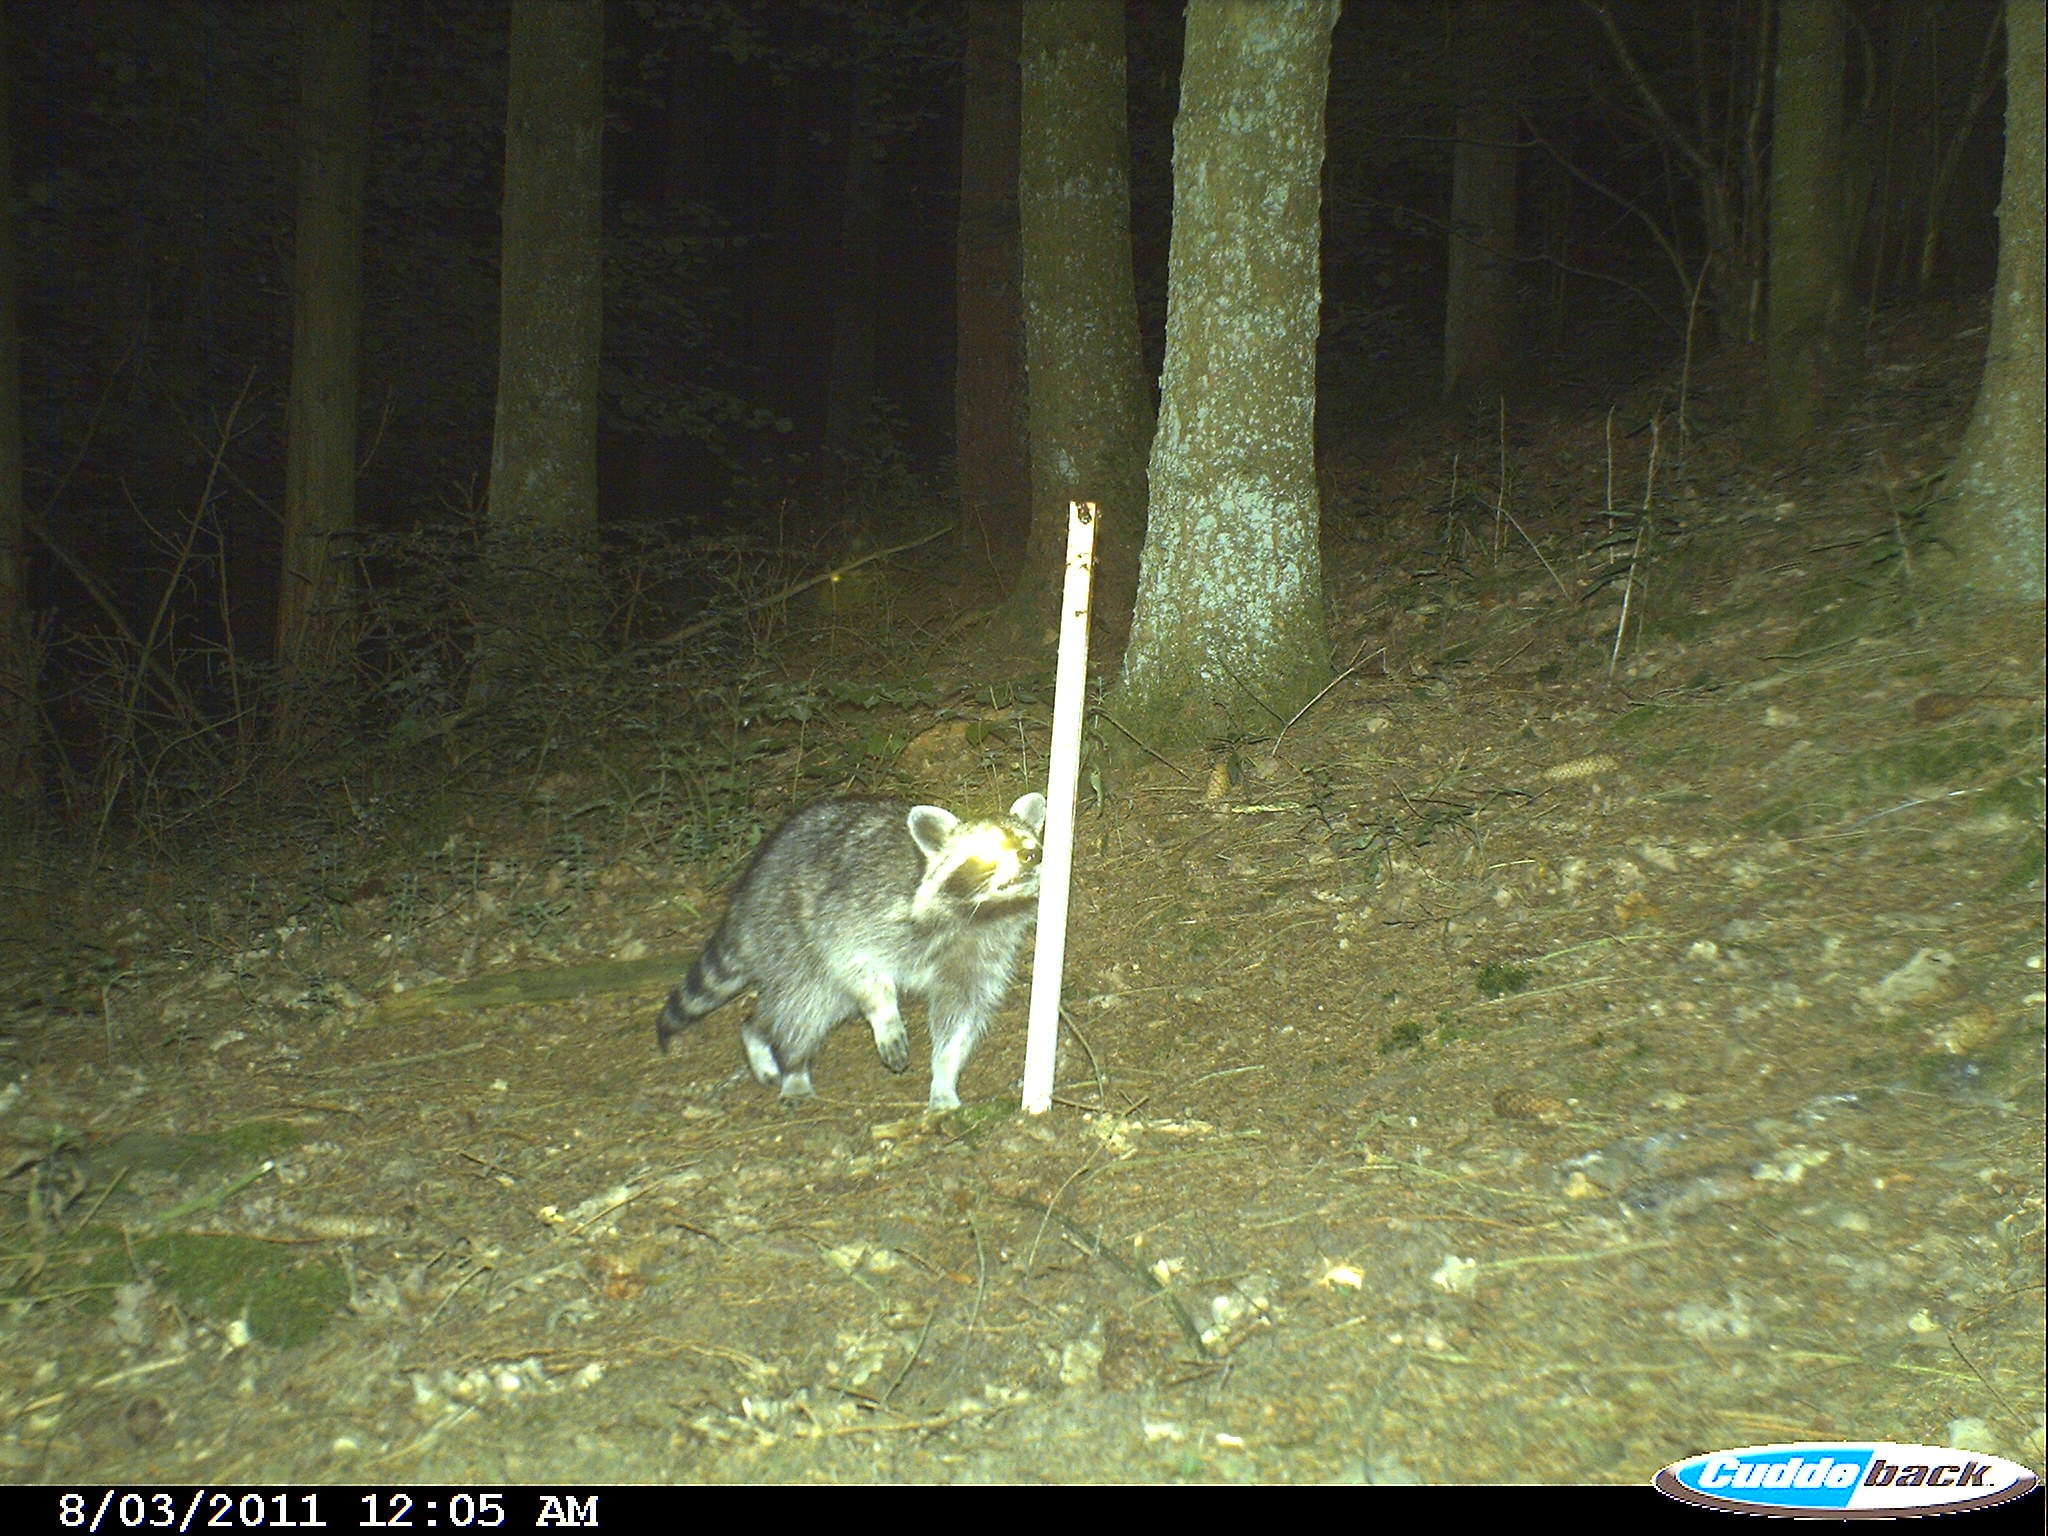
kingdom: Animalia
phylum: Chordata
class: Mammalia
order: Carnivora
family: Procyonidae
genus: Procyon
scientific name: Procyon lotor
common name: Raccoon
